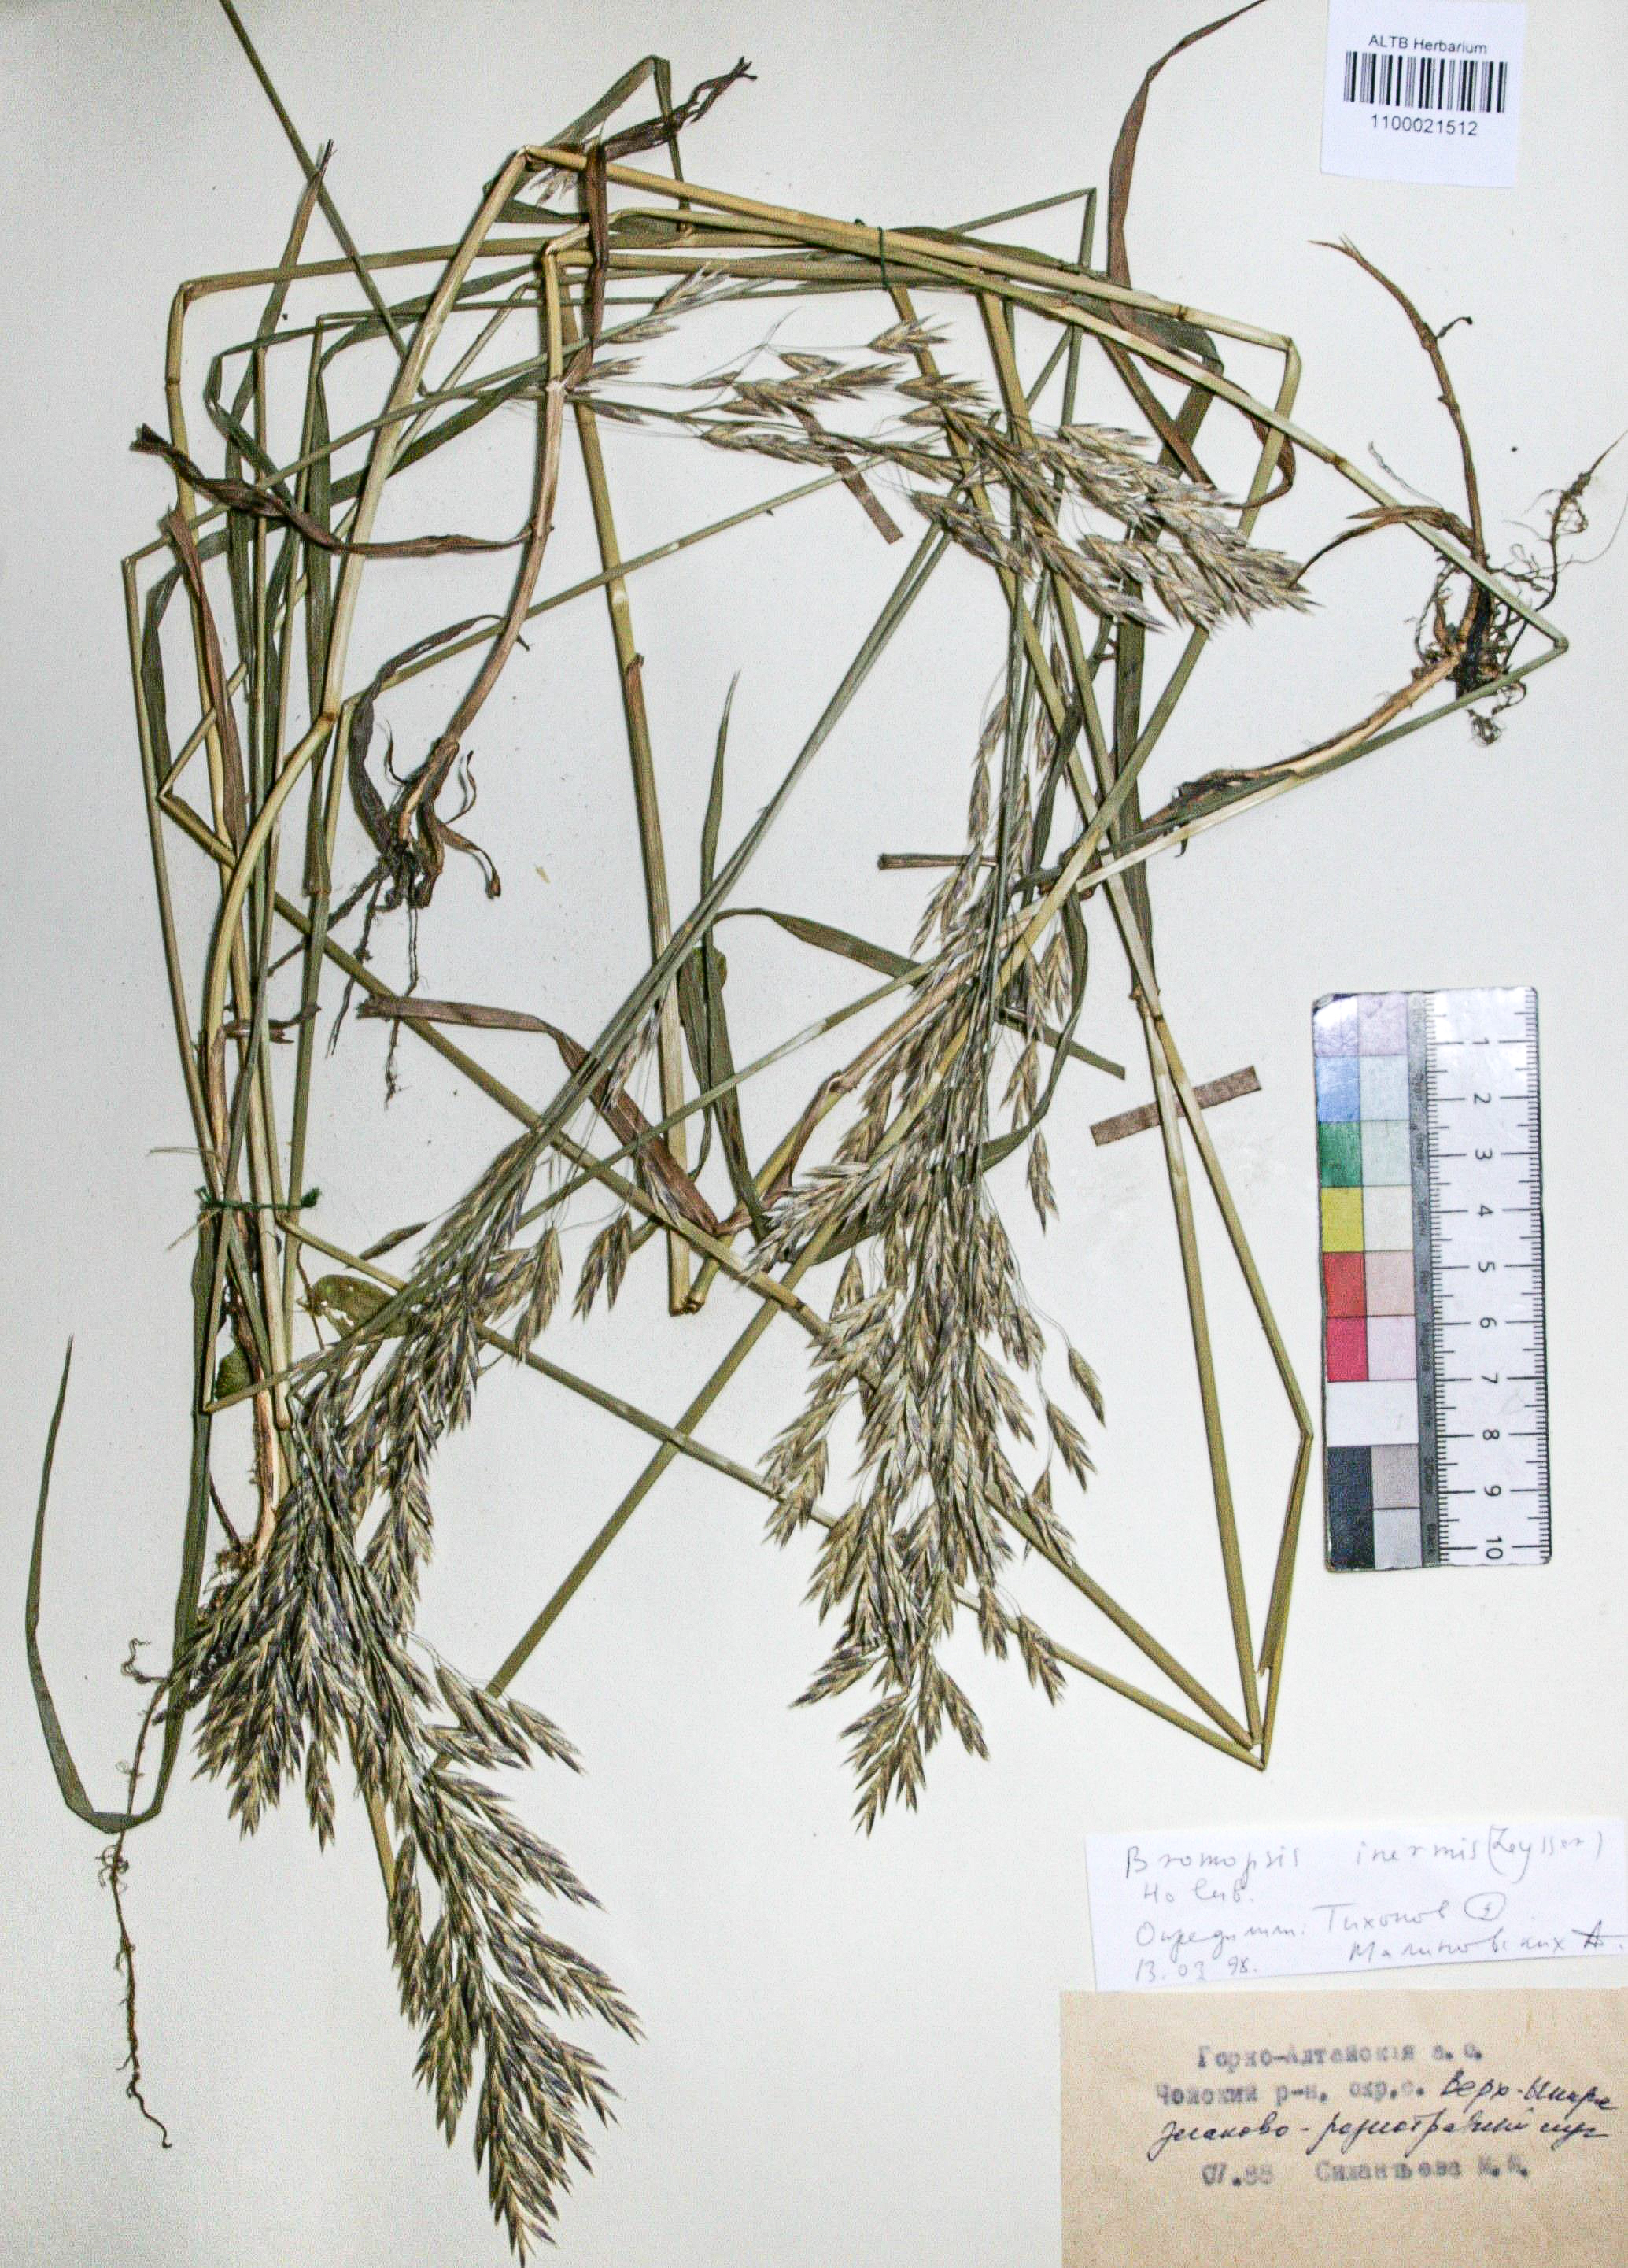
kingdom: Plantae
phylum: Tracheophyta
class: Liliopsida
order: Poales
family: Poaceae
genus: Bromus
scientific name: Bromus inermis
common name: Smooth brome
